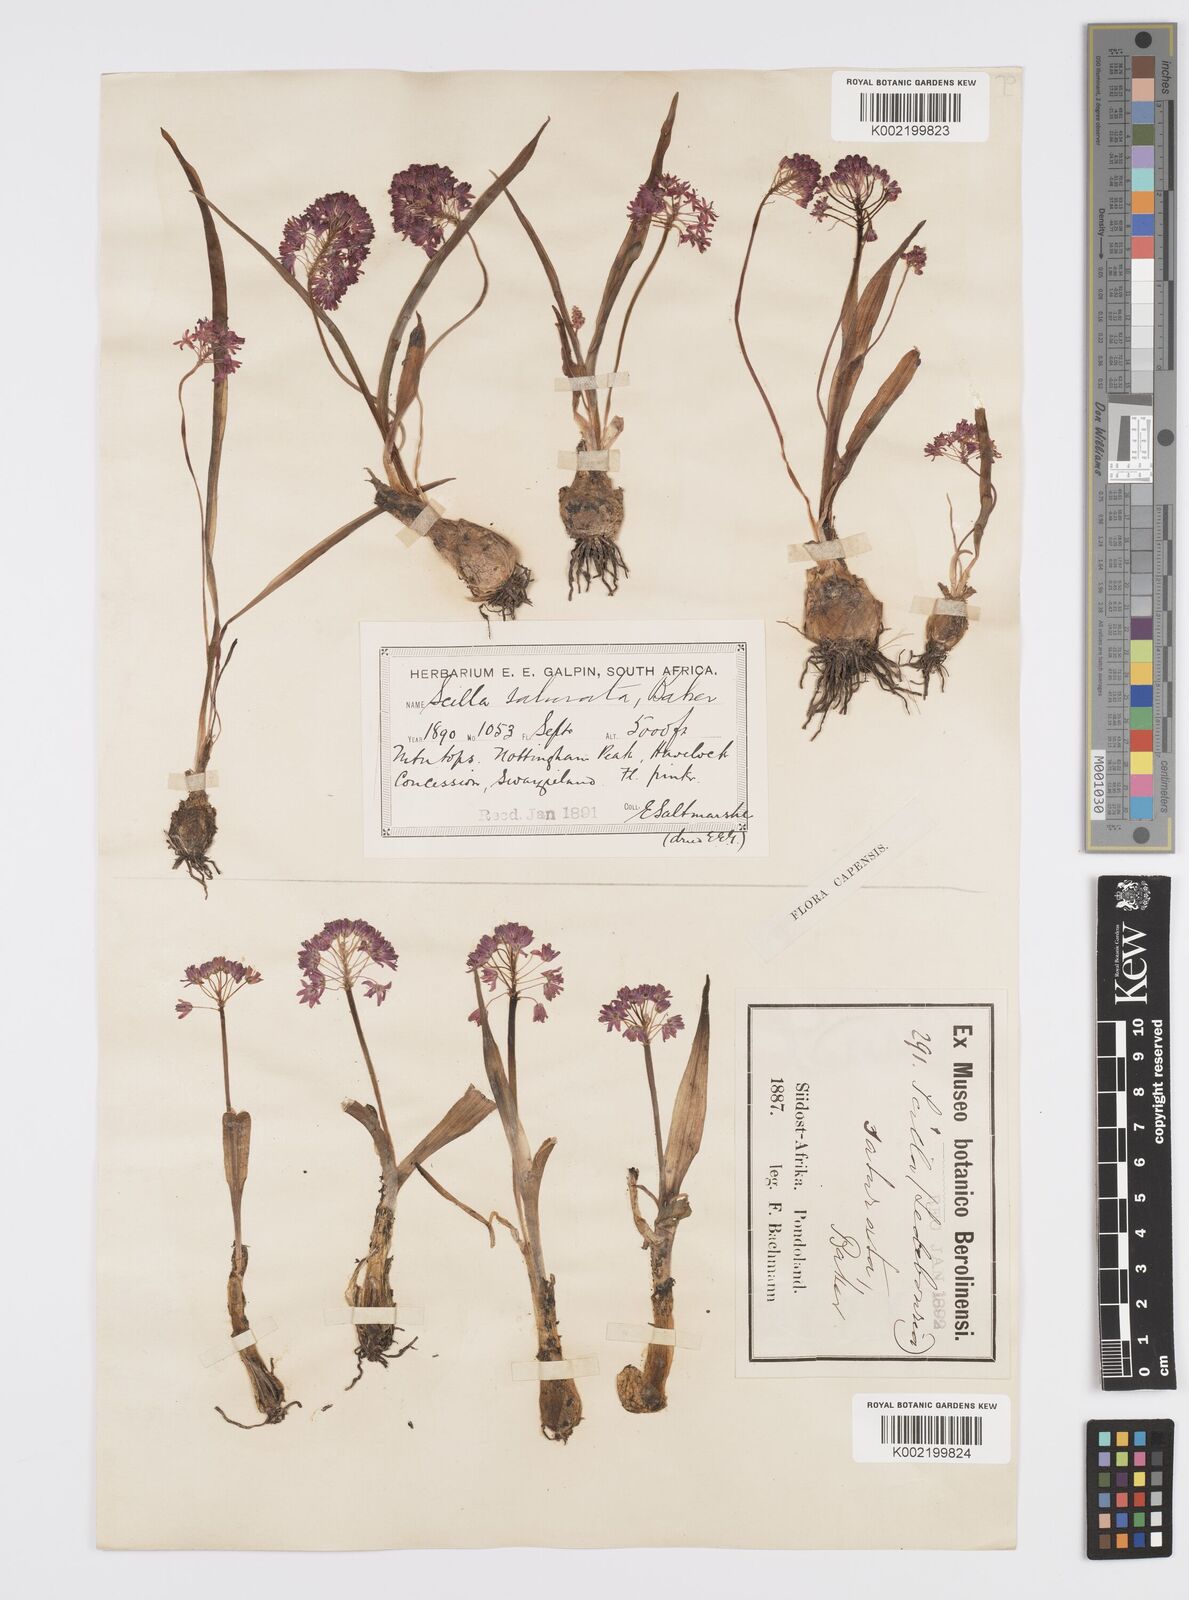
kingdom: Plantae
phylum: Tracheophyta
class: Liliopsida
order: Asparagales
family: Asparagaceae
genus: Ledebouria
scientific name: Ledebouria cooperi
